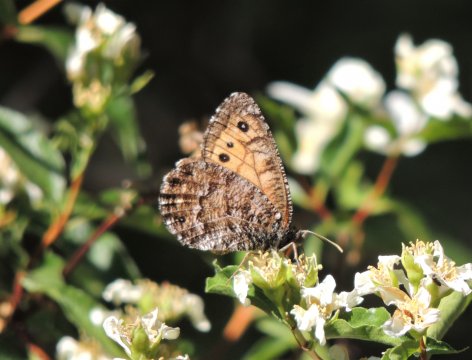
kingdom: Animalia
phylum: Arthropoda
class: Insecta
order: Lepidoptera
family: Nymphalidae
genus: Oeneis
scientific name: Oeneis chryxus
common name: Chryxus Arctic
